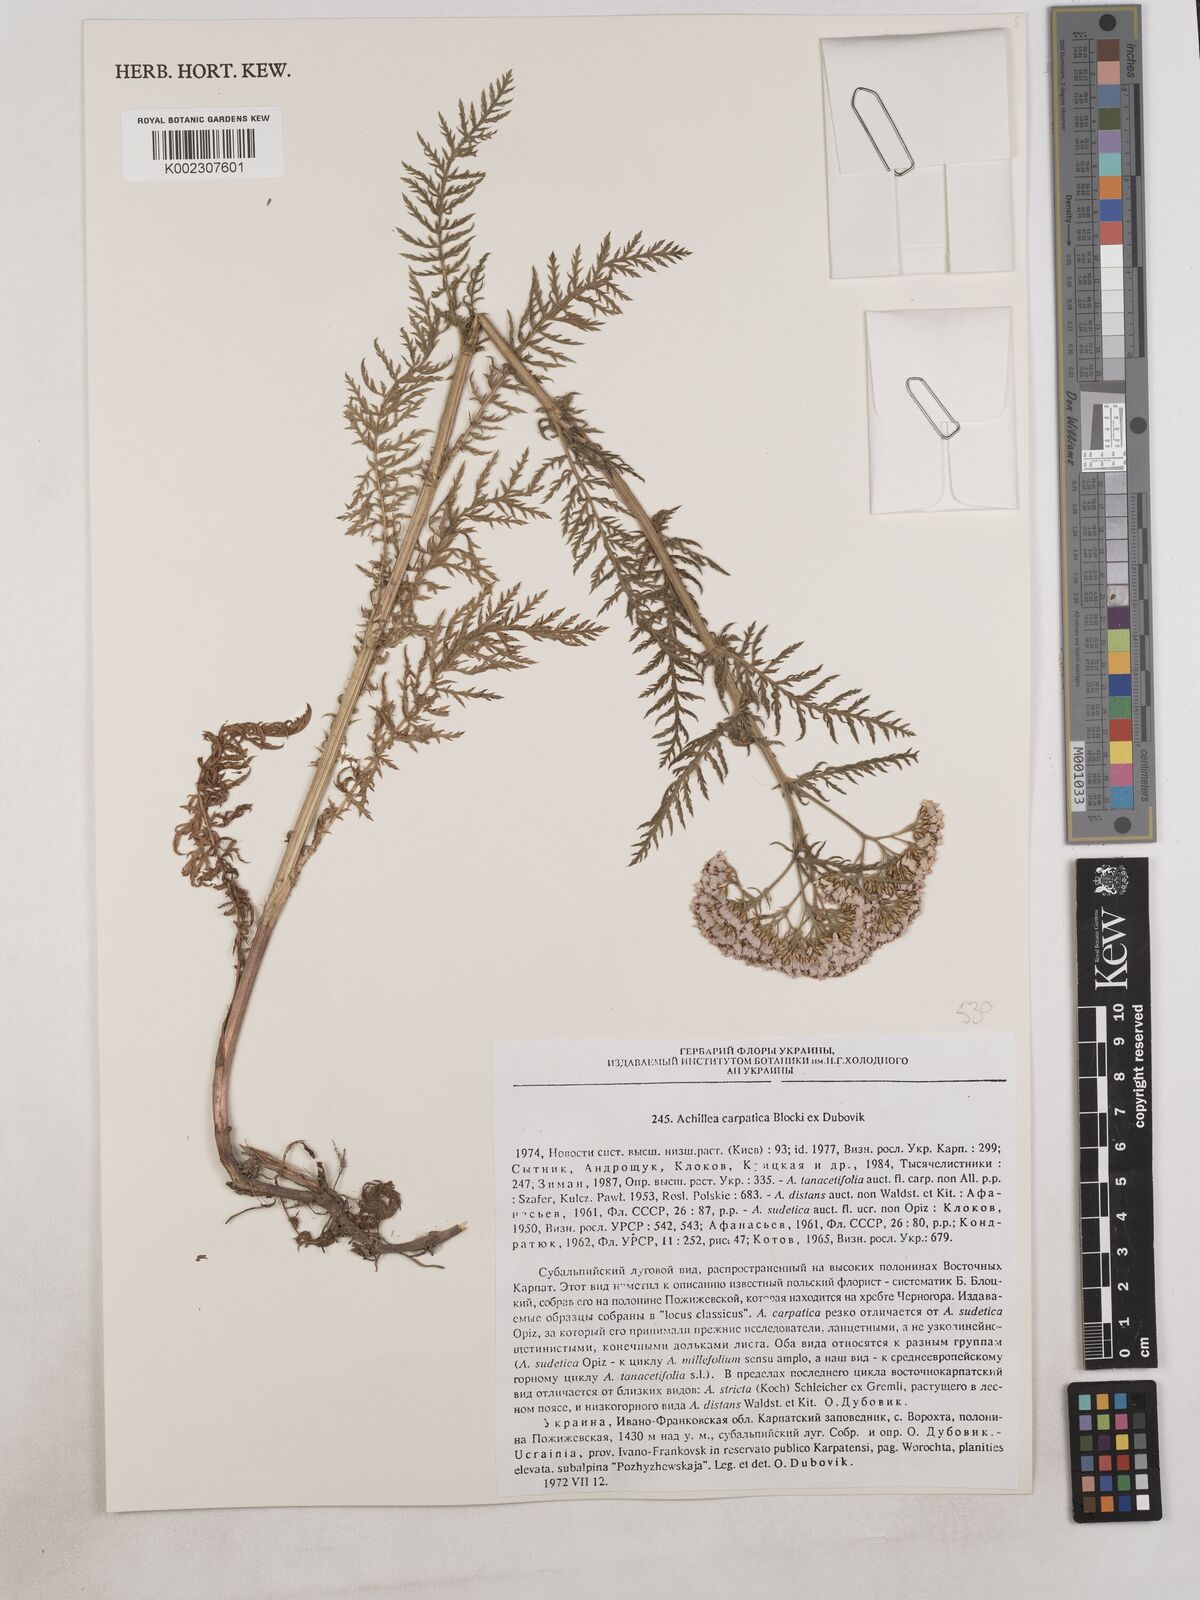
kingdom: Plantae
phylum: Tracheophyta
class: Magnoliopsida
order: Asterales
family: Asteraceae
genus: Achillea
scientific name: Achillea carpatica
